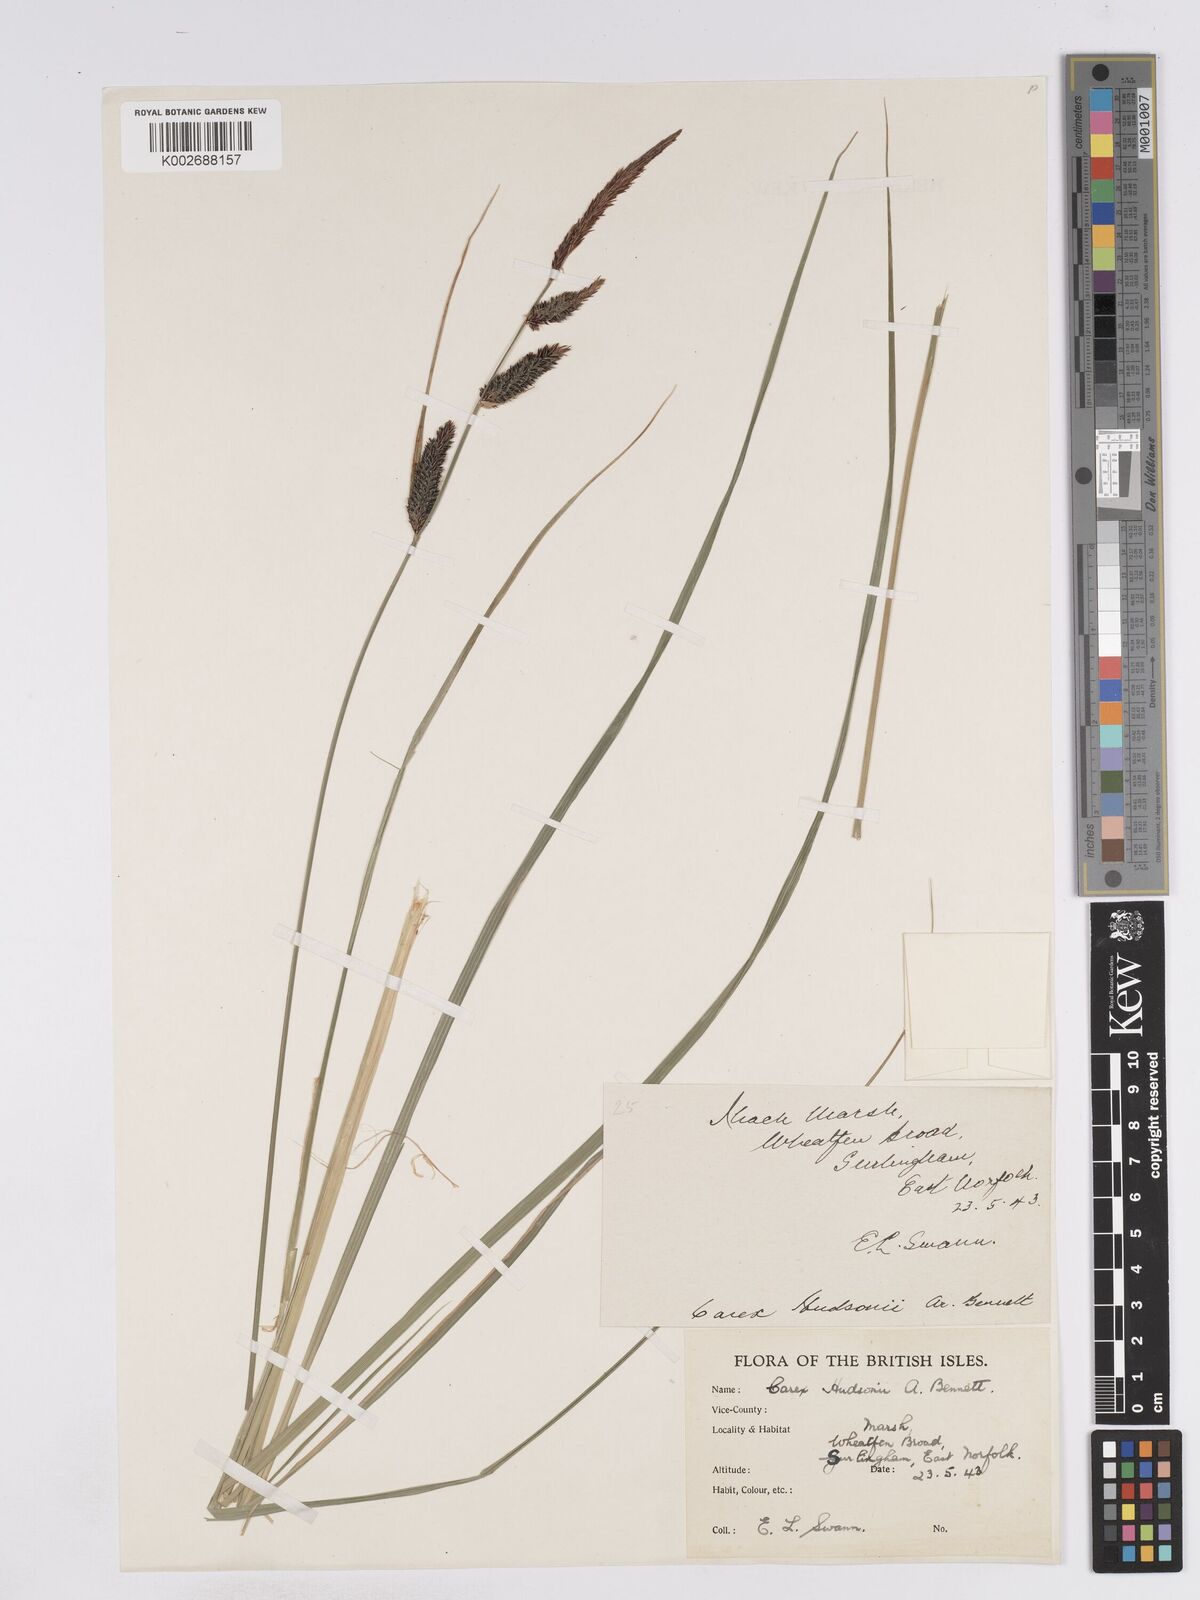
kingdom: Plantae
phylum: Tracheophyta
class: Liliopsida
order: Poales
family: Cyperaceae
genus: Carex
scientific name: Carex elata
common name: Tufted sedge
